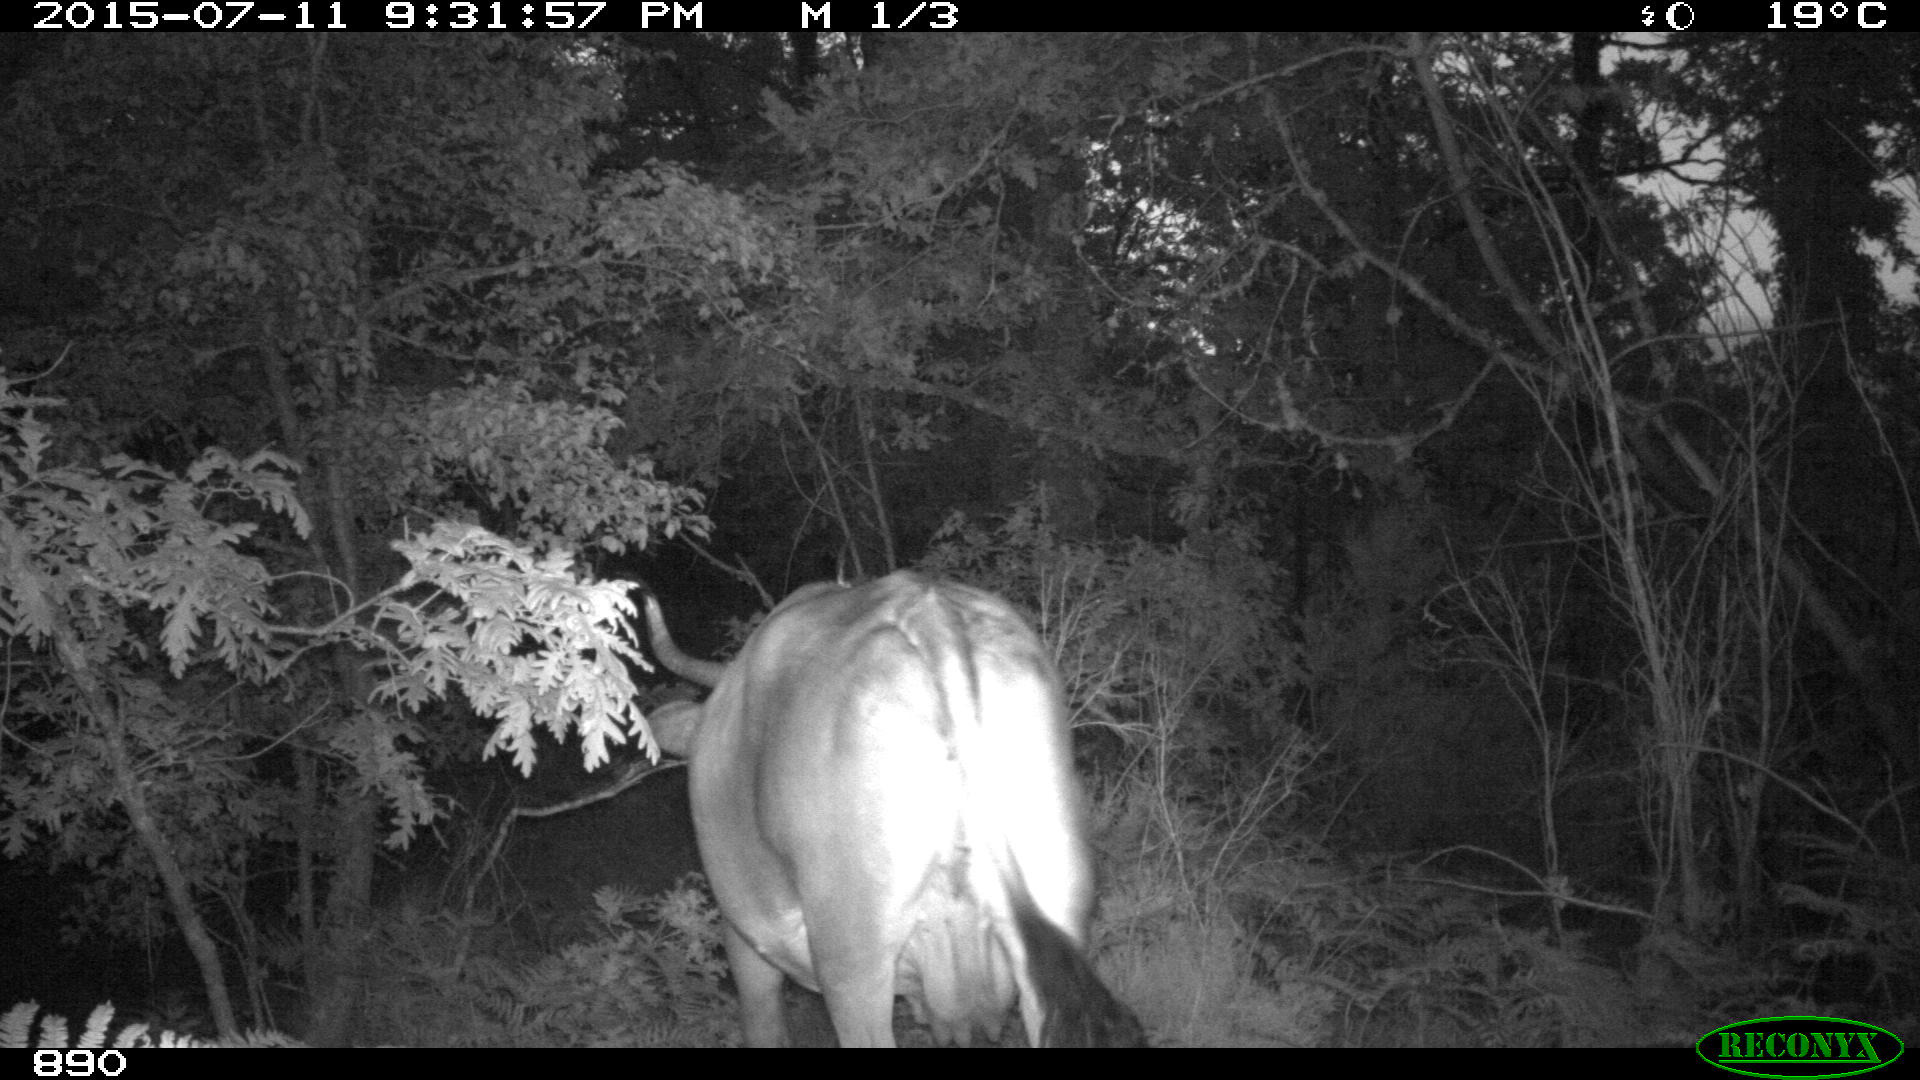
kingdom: Animalia
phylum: Chordata
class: Mammalia
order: Artiodactyla
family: Bovidae
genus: Bos
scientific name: Bos taurus
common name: Domesticated cattle
